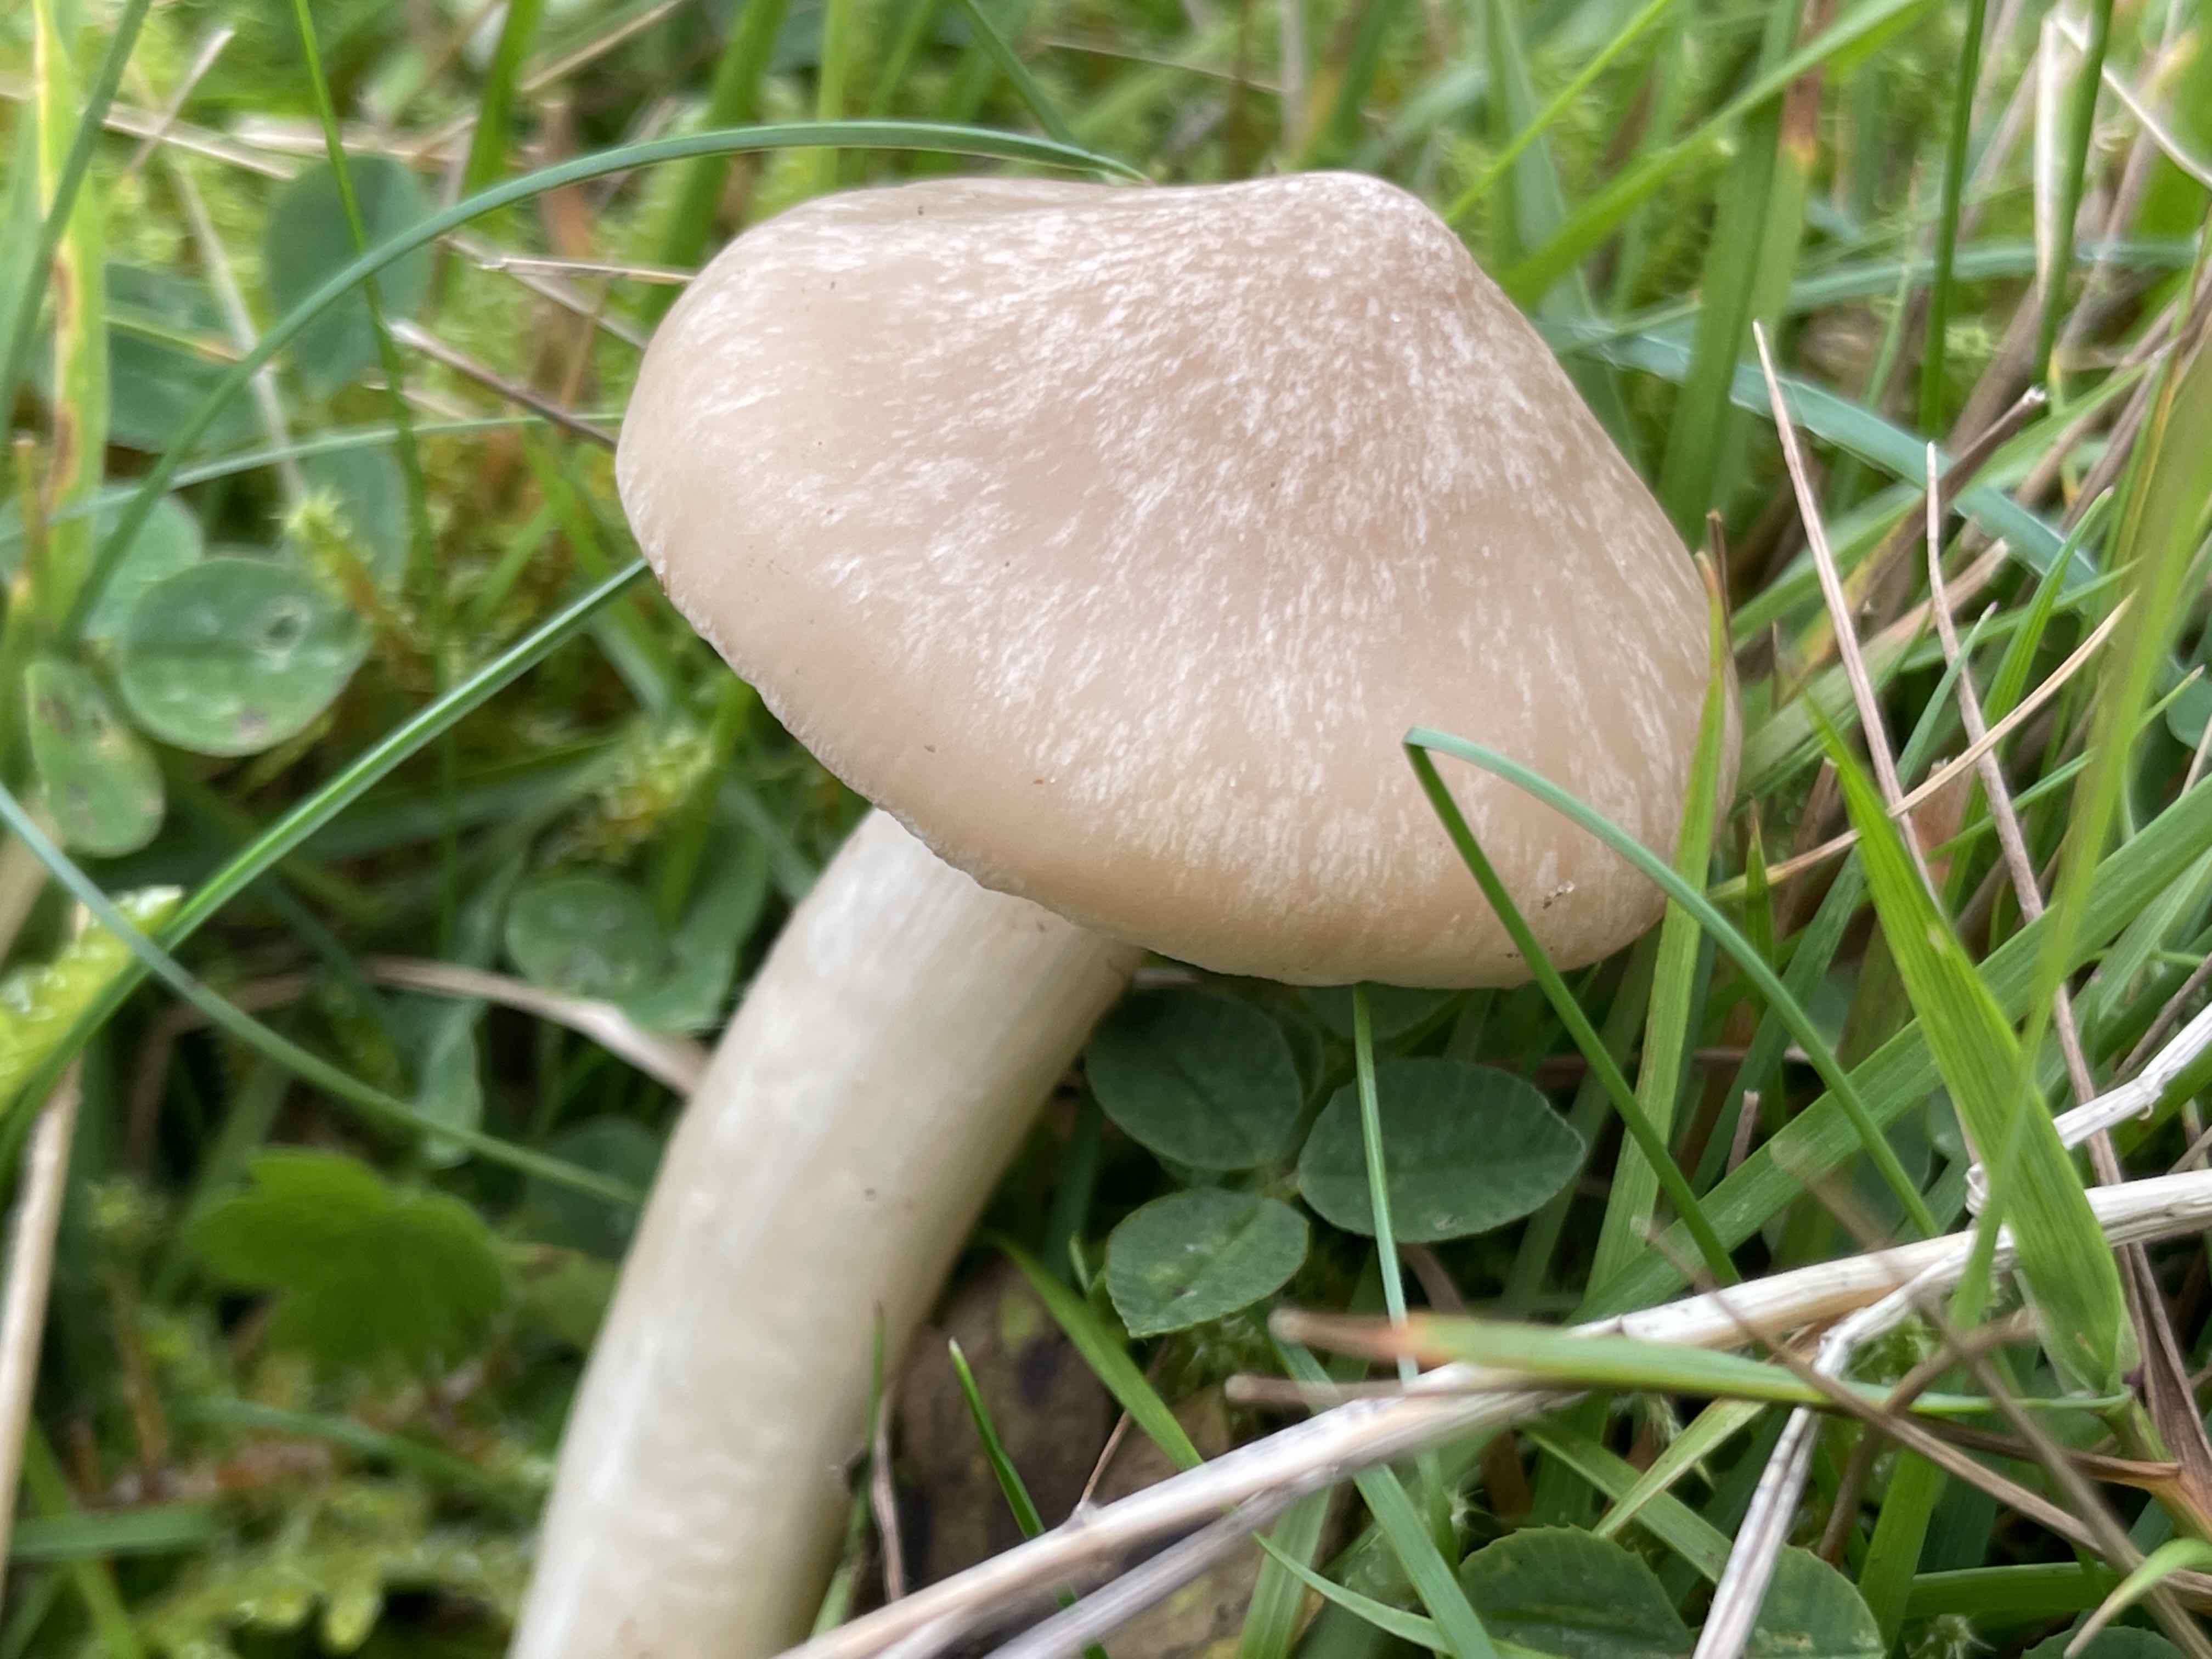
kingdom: Fungi
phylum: Basidiomycota
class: Agaricomycetes
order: Agaricales
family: Entolomataceae
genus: Entoloma
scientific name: Entoloma prunuloides
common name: mel-rødblad
